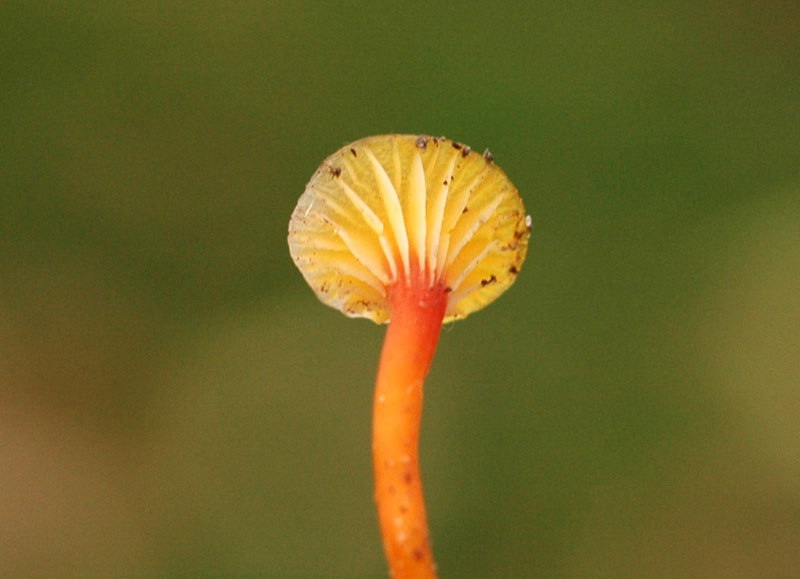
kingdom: Fungi
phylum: Basidiomycota
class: Agaricomycetes
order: Agaricales
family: Hygrophoraceae
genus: Hygrocybe
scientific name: Hygrocybe insipida
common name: liden vokshat
